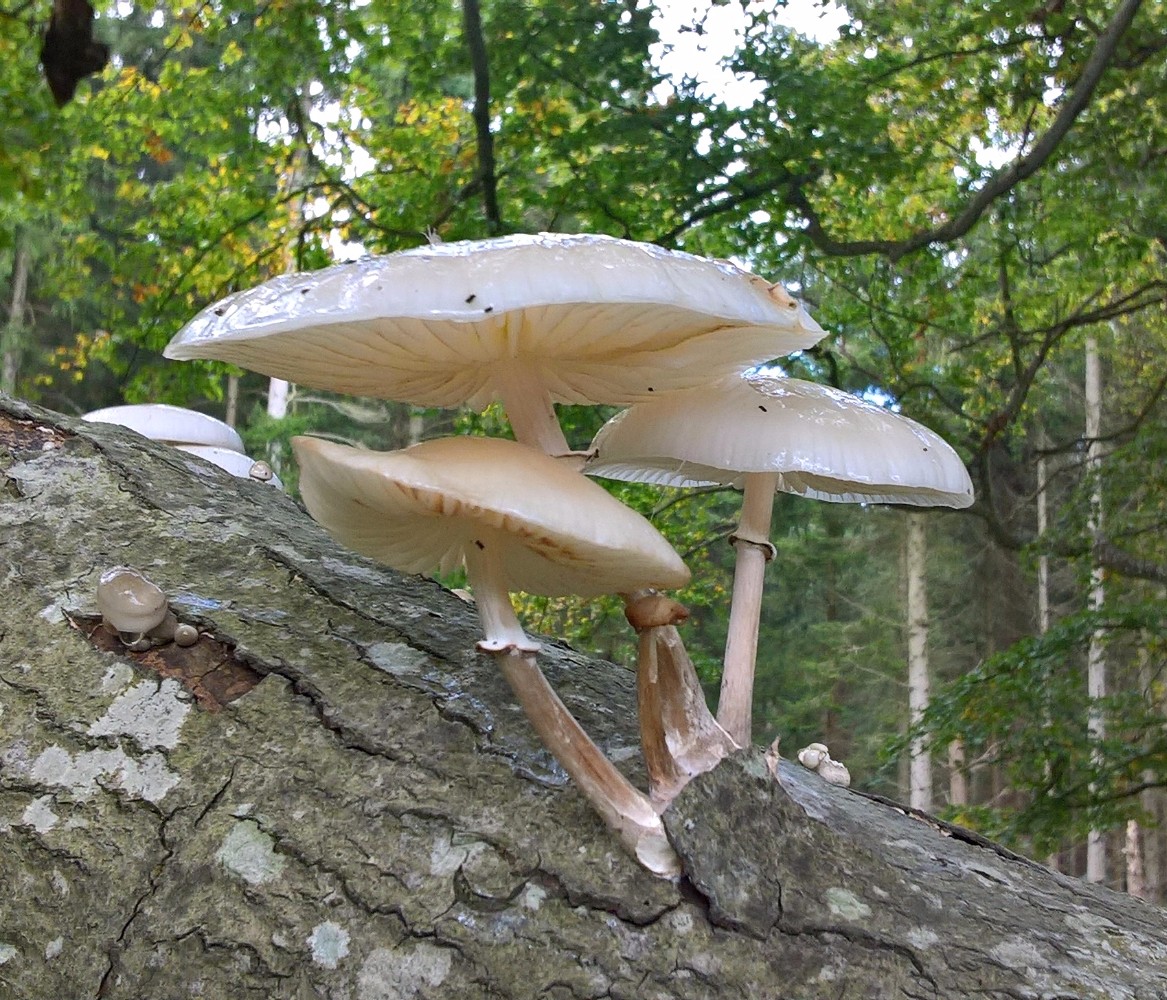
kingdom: Fungi
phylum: Basidiomycota
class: Agaricomycetes
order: Agaricales
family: Physalacriaceae
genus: Mucidula
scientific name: Mucidula mucida
